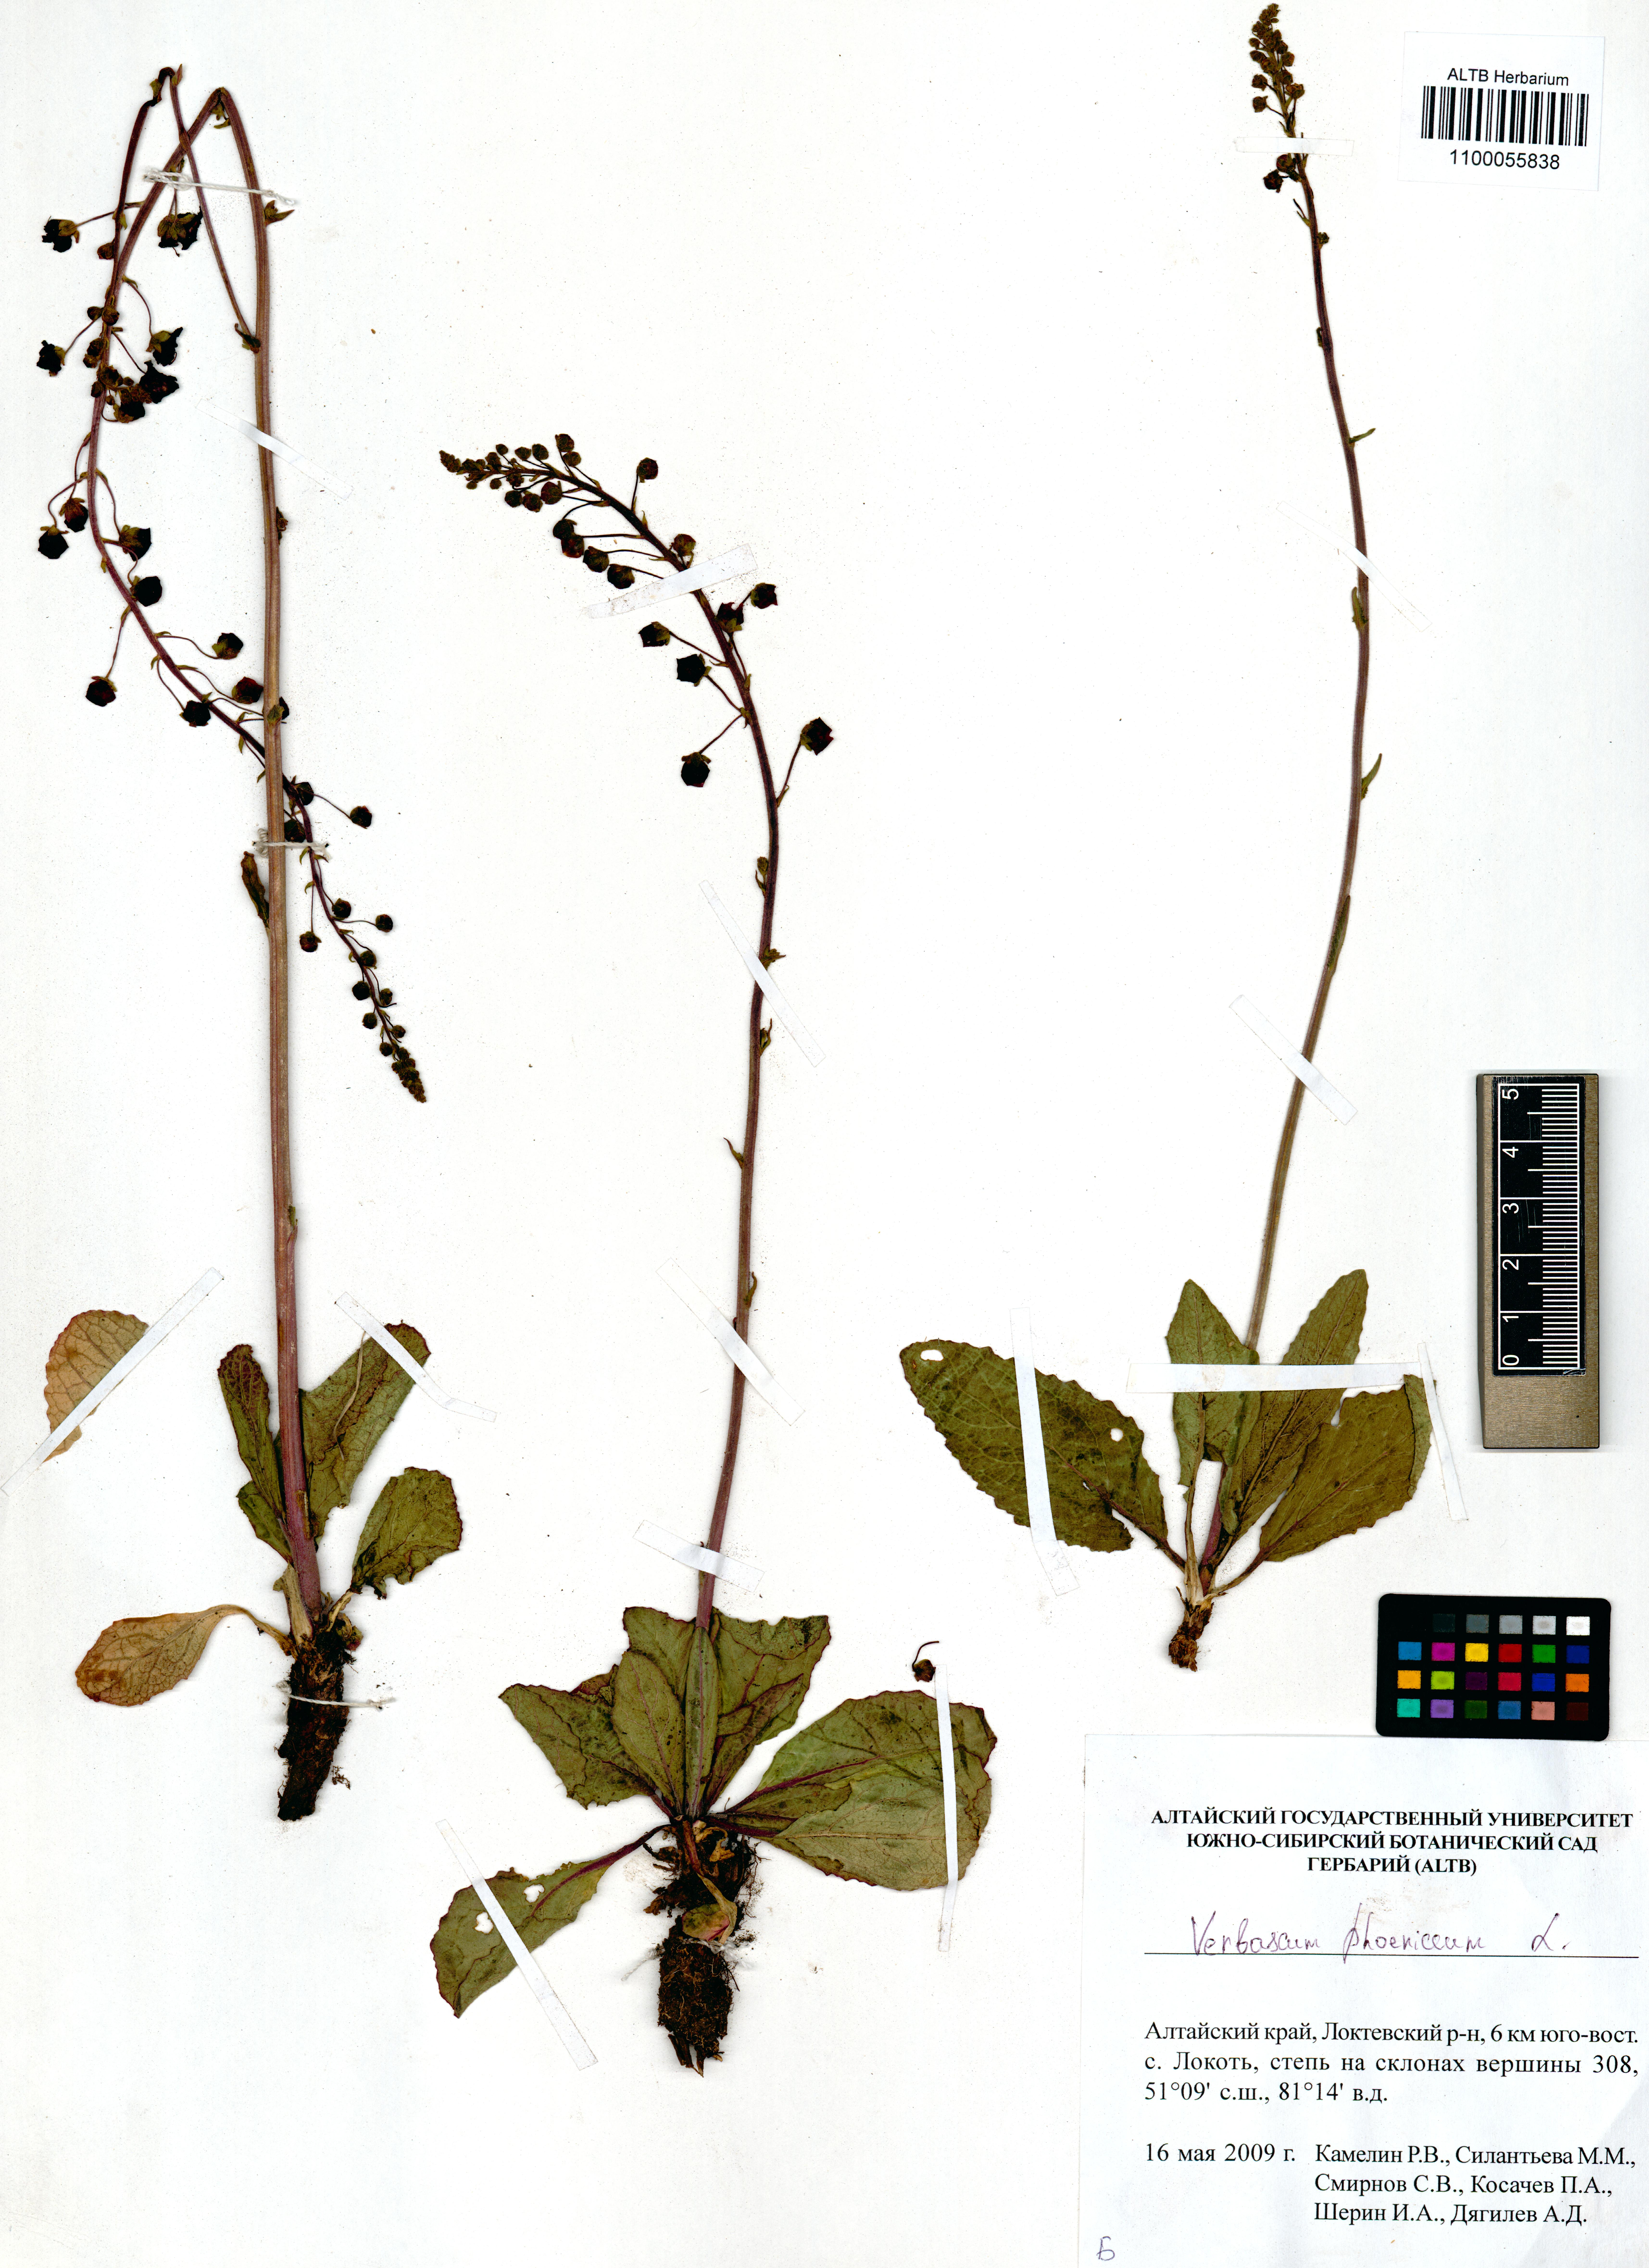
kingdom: Plantae
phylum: Tracheophyta
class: Magnoliopsida
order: Lamiales
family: Scrophulariaceae
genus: Verbascum
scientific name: Verbascum phoeniceum
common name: Purple mullein
